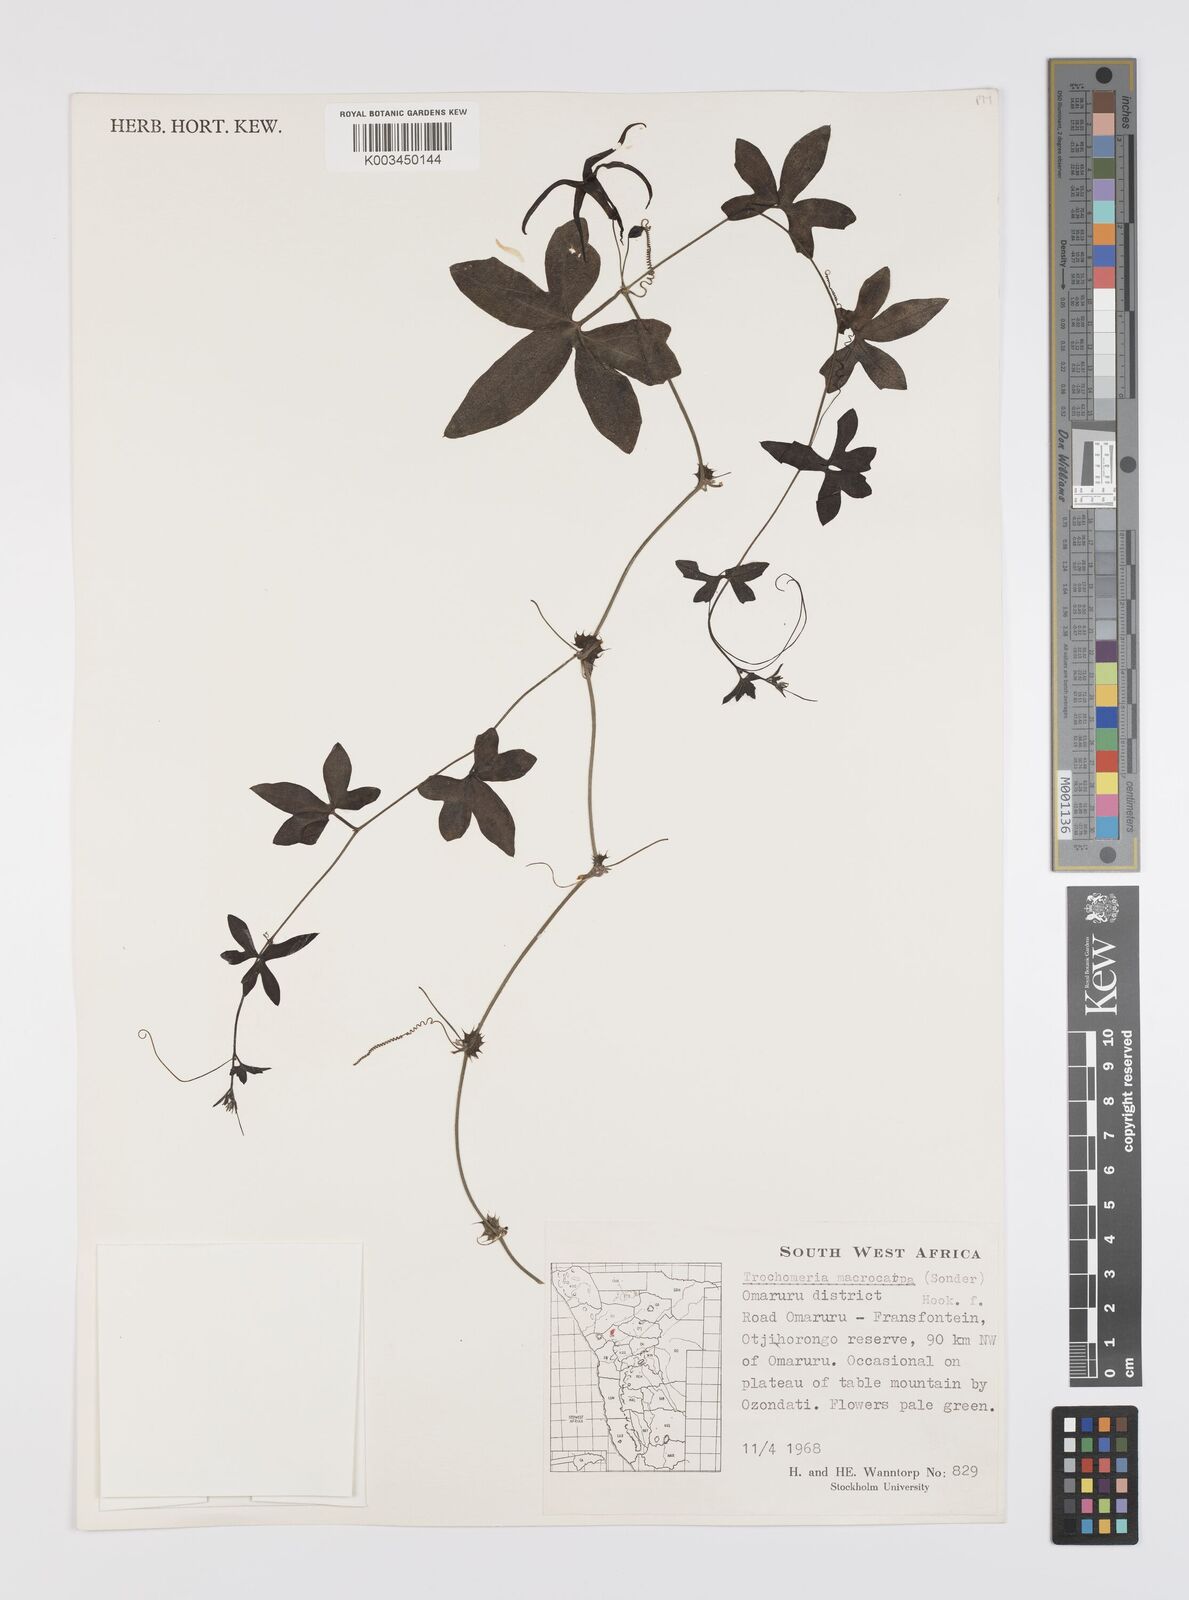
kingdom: Plantae
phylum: Tracheophyta
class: Magnoliopsida
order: Cucurbitales
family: Cucurbitaceae
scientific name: Cucurbitaceae
